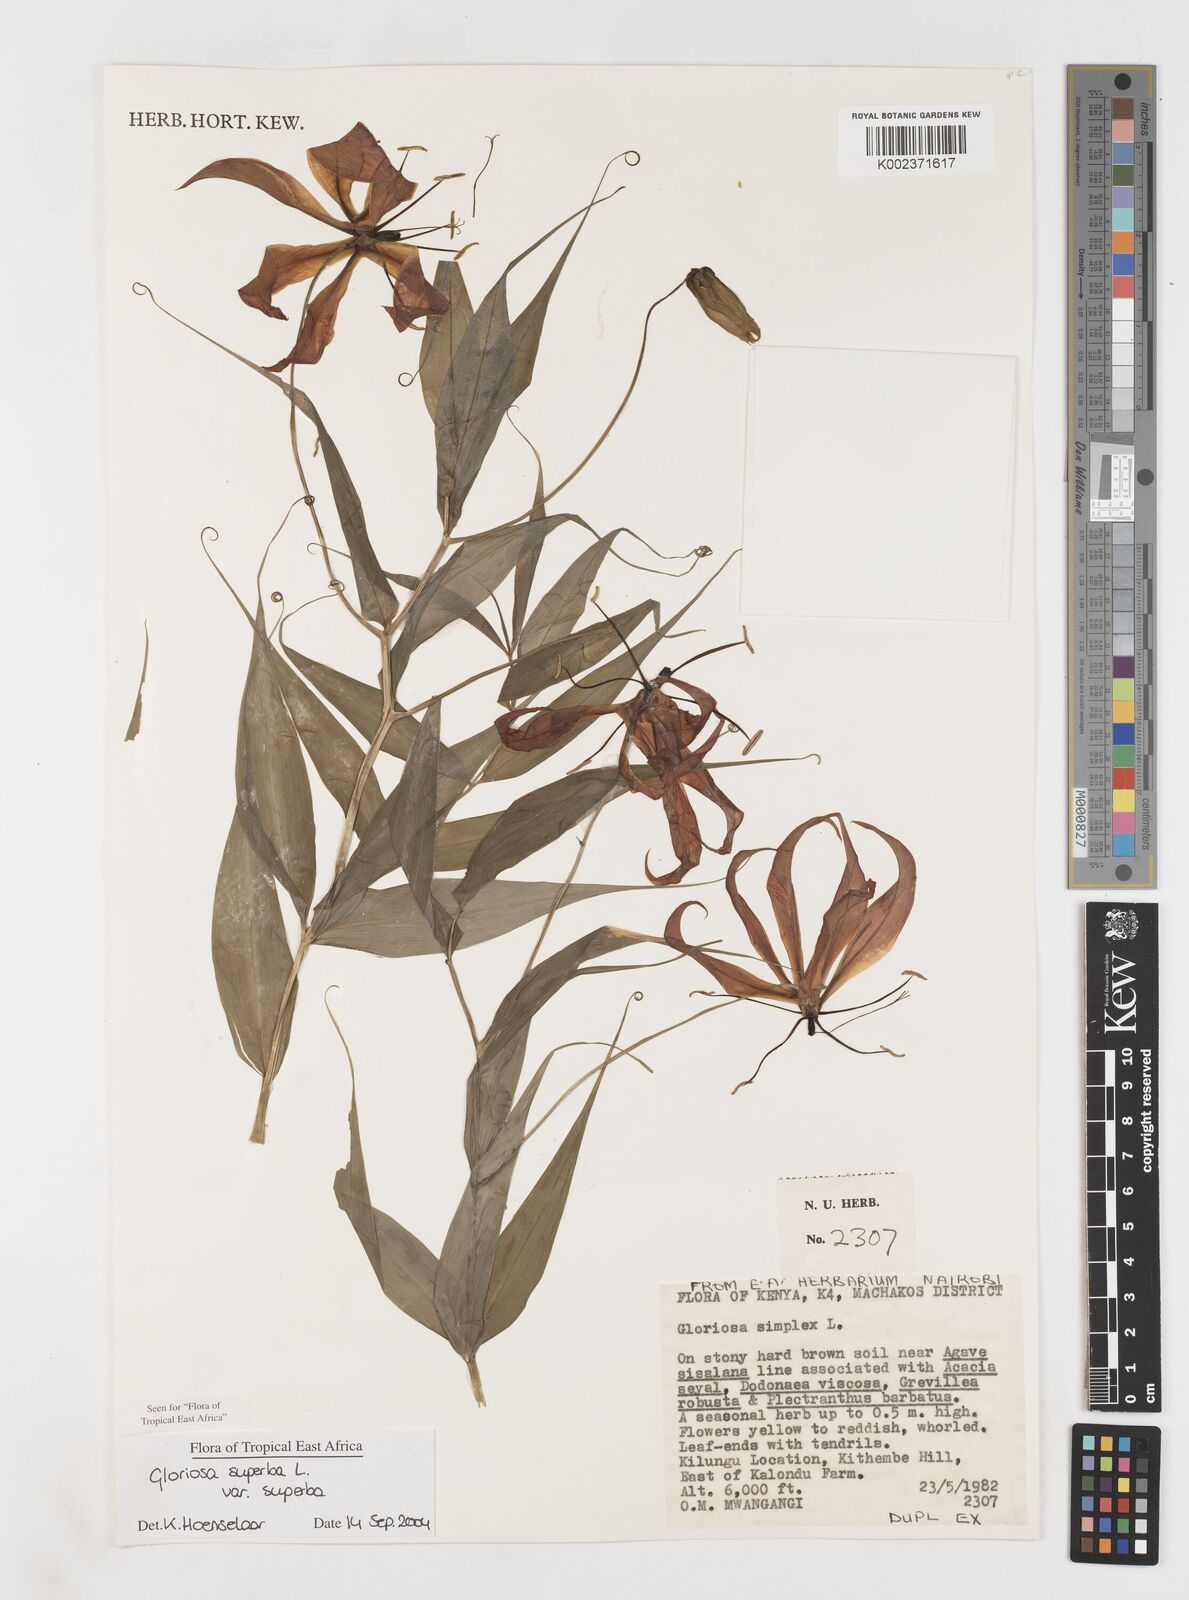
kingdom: Plantae
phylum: Tracheophyta
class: Liliopsida
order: Liliales
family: Colchicaceae
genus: Gloriosa
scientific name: Gloriosa simplex
